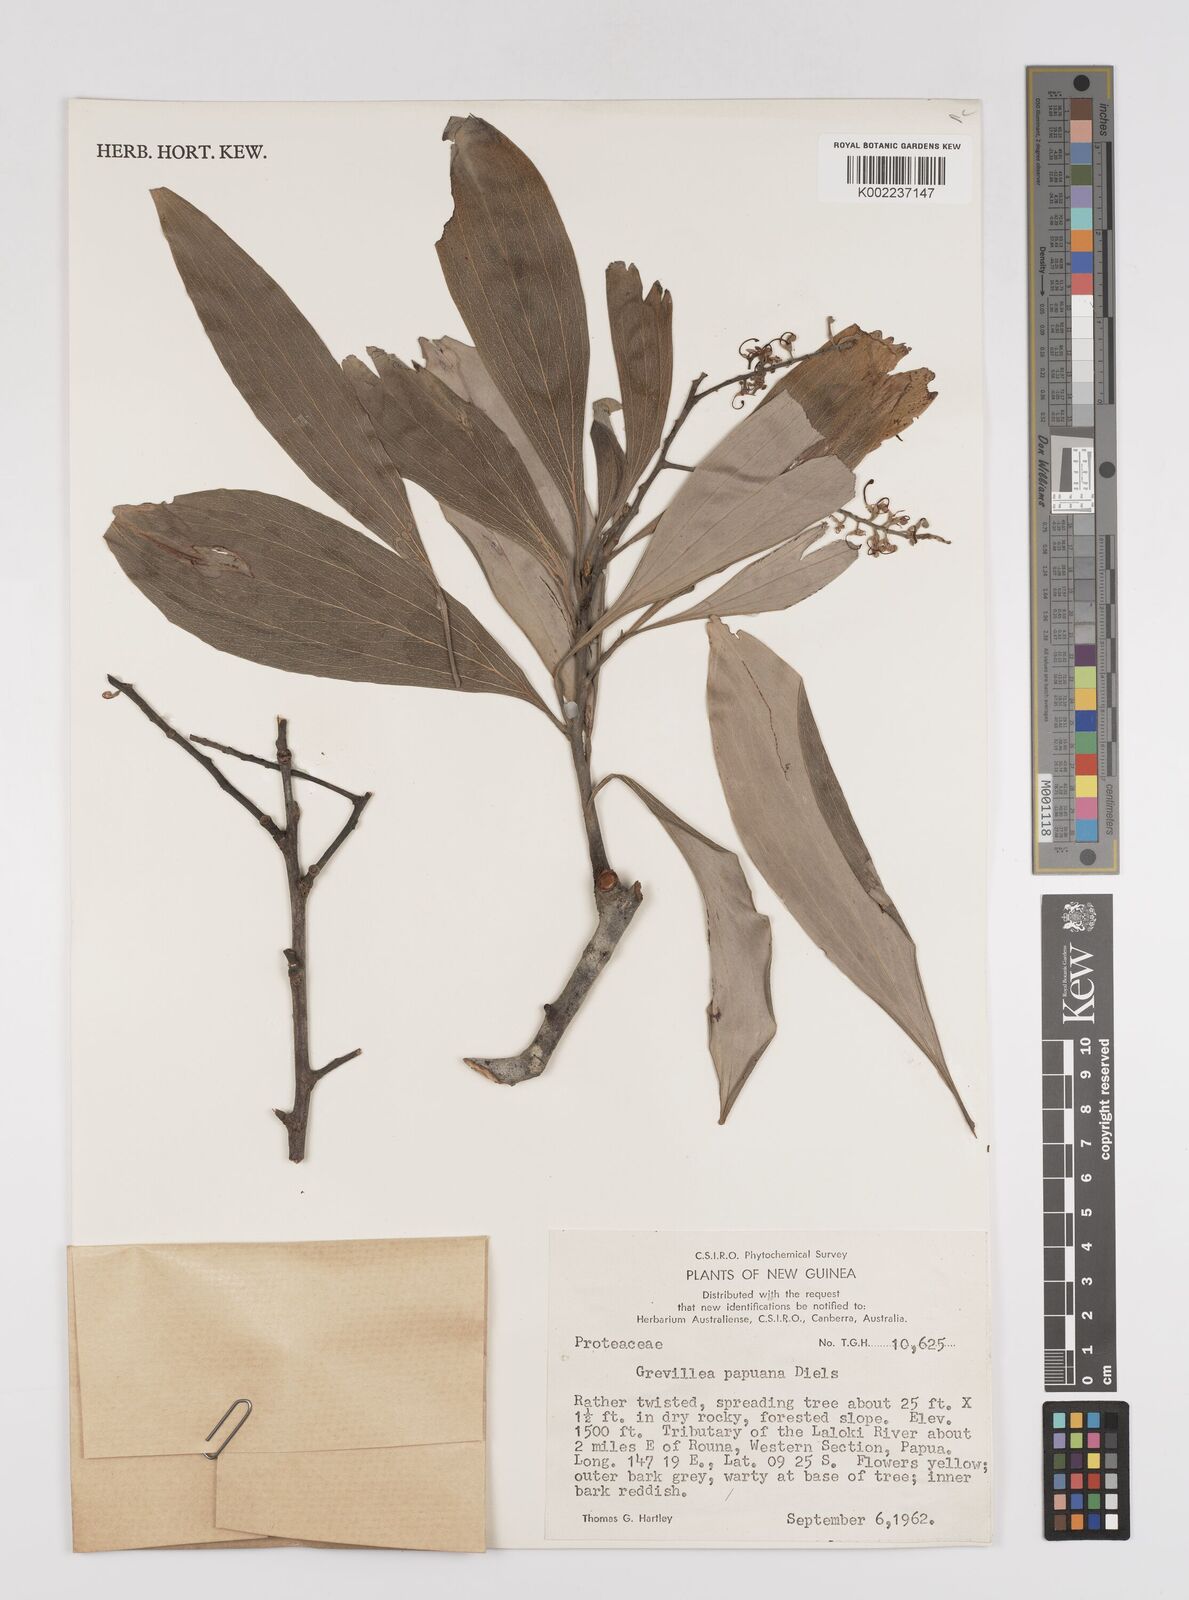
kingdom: Plantae
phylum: Tracheophyta
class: Magnoliopsida
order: Proteales
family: Proteaceae
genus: Grevillea
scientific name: Grevillea papuana
